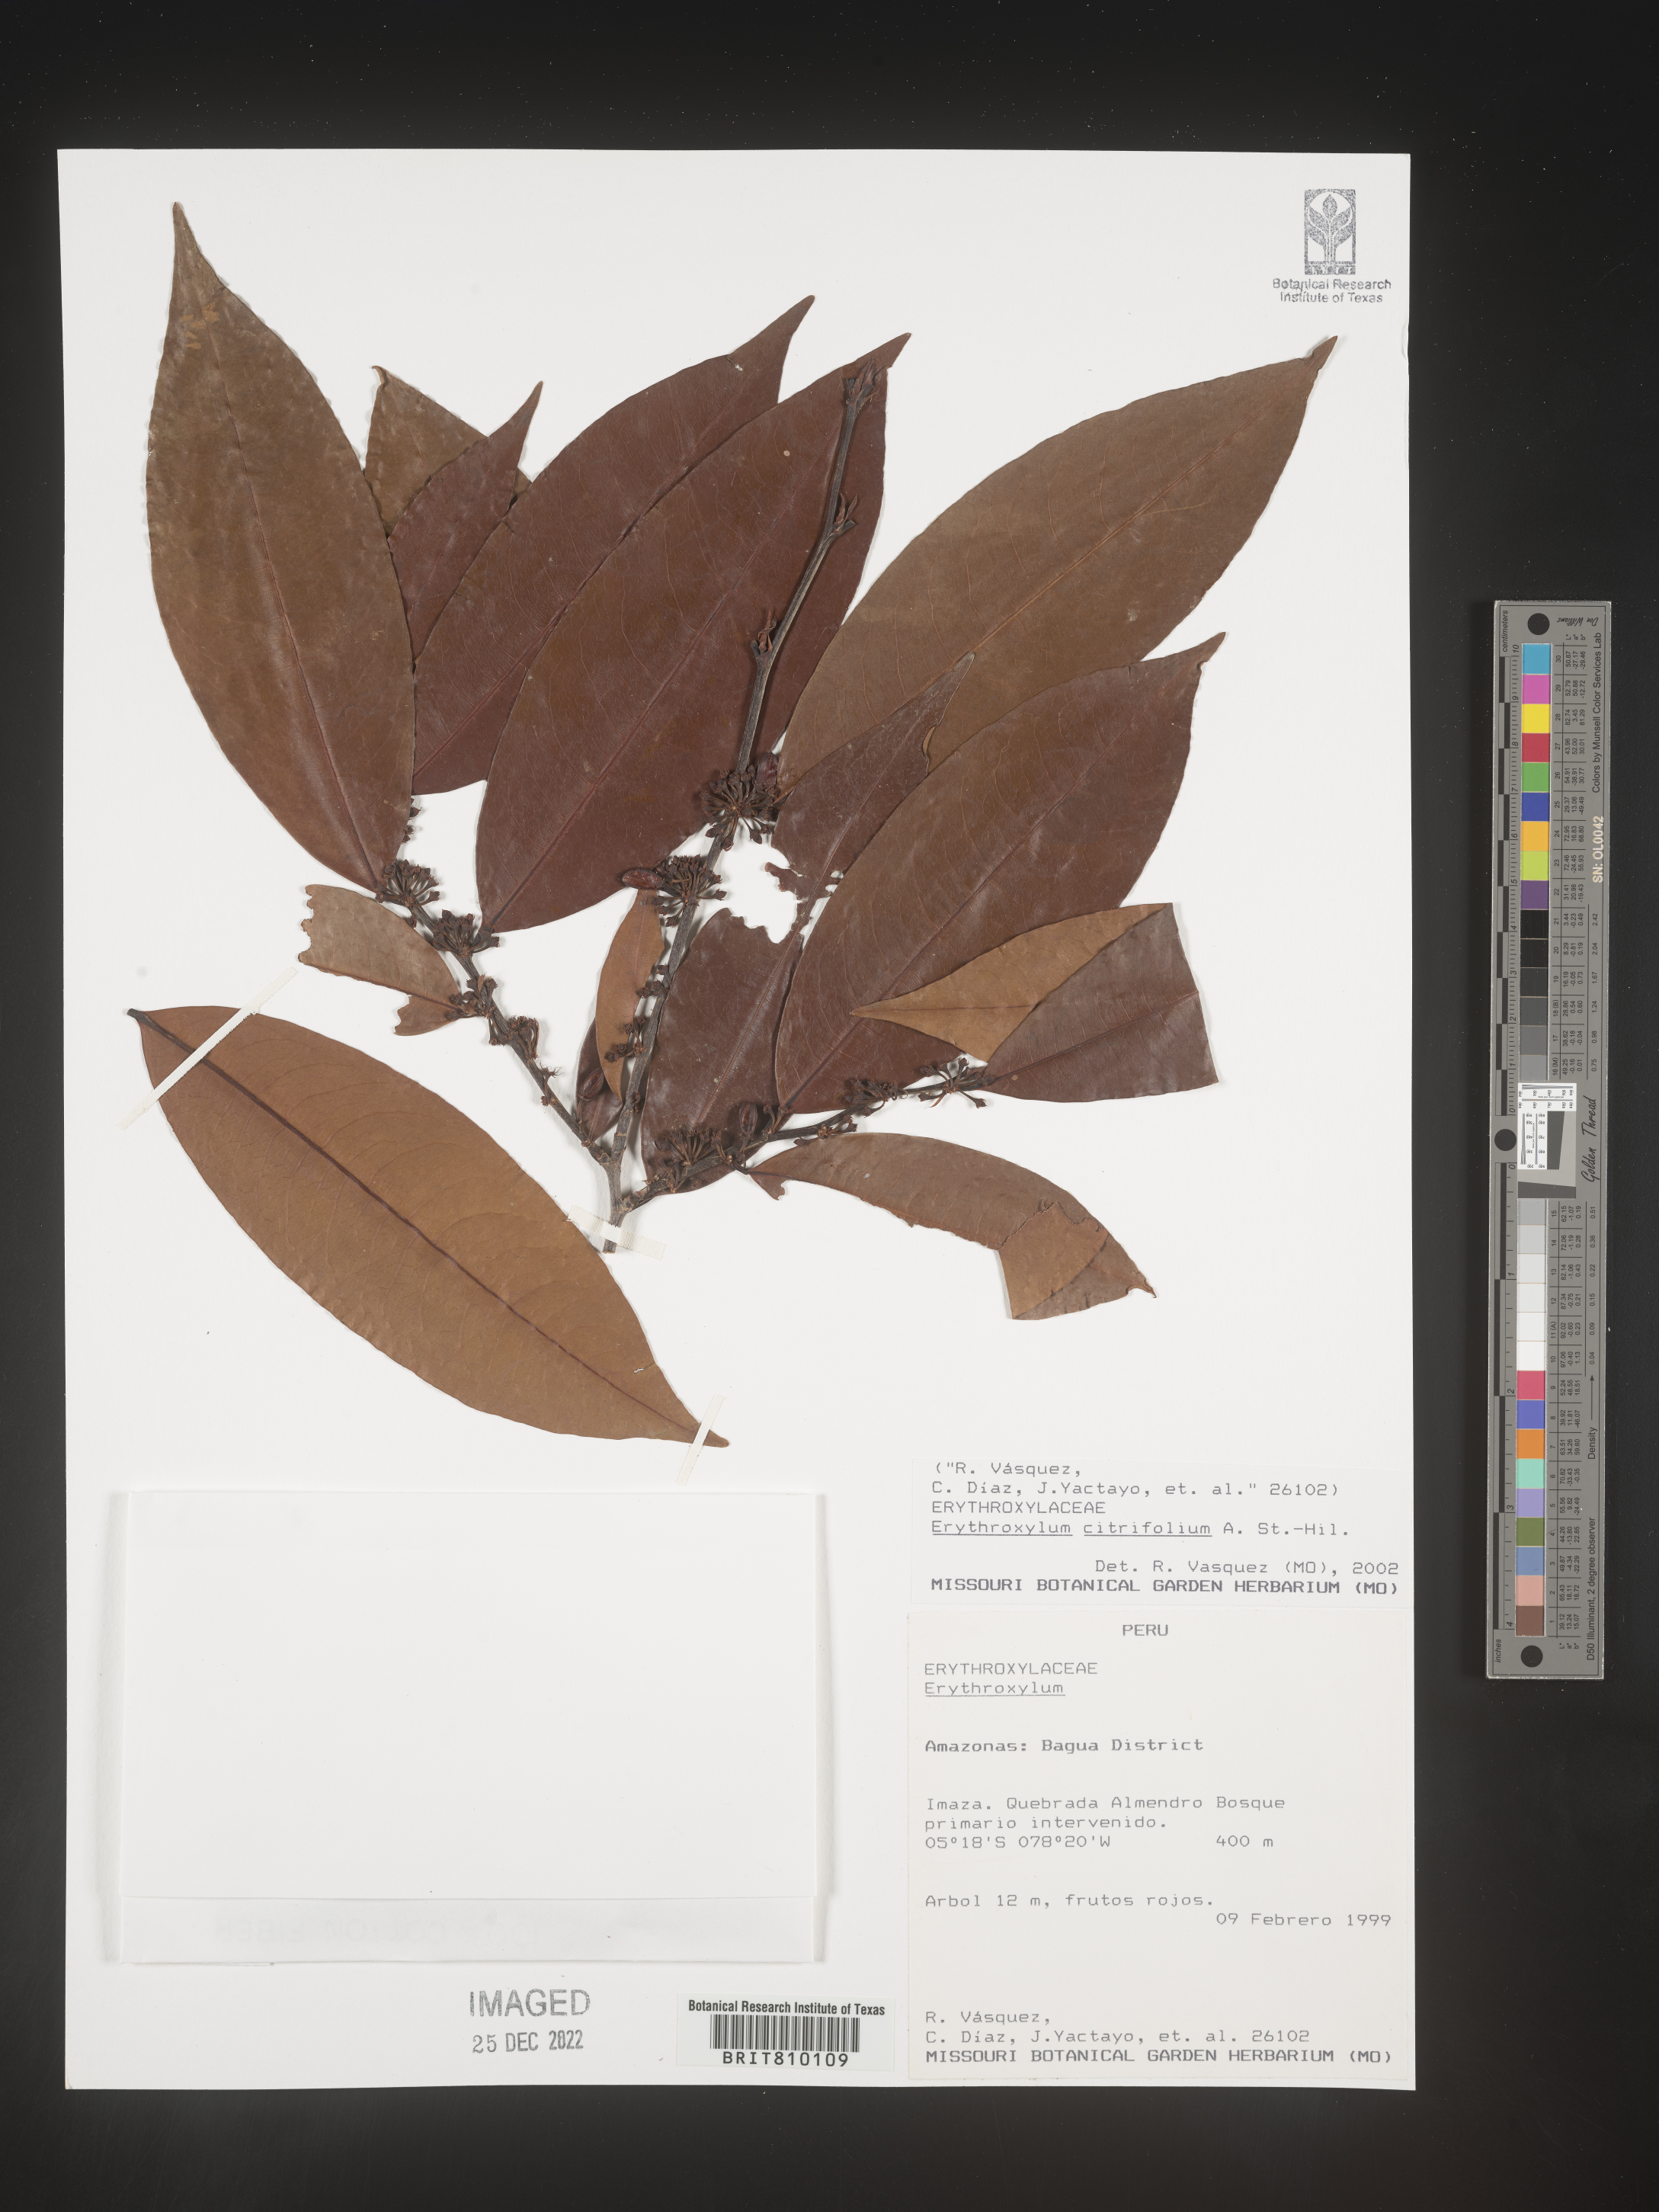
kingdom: Plantae
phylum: Tracheophyta
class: Magnoliopsida
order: Malpighiales
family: Erythroxylaceae
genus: Erythroxylum
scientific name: Erythroxylum
